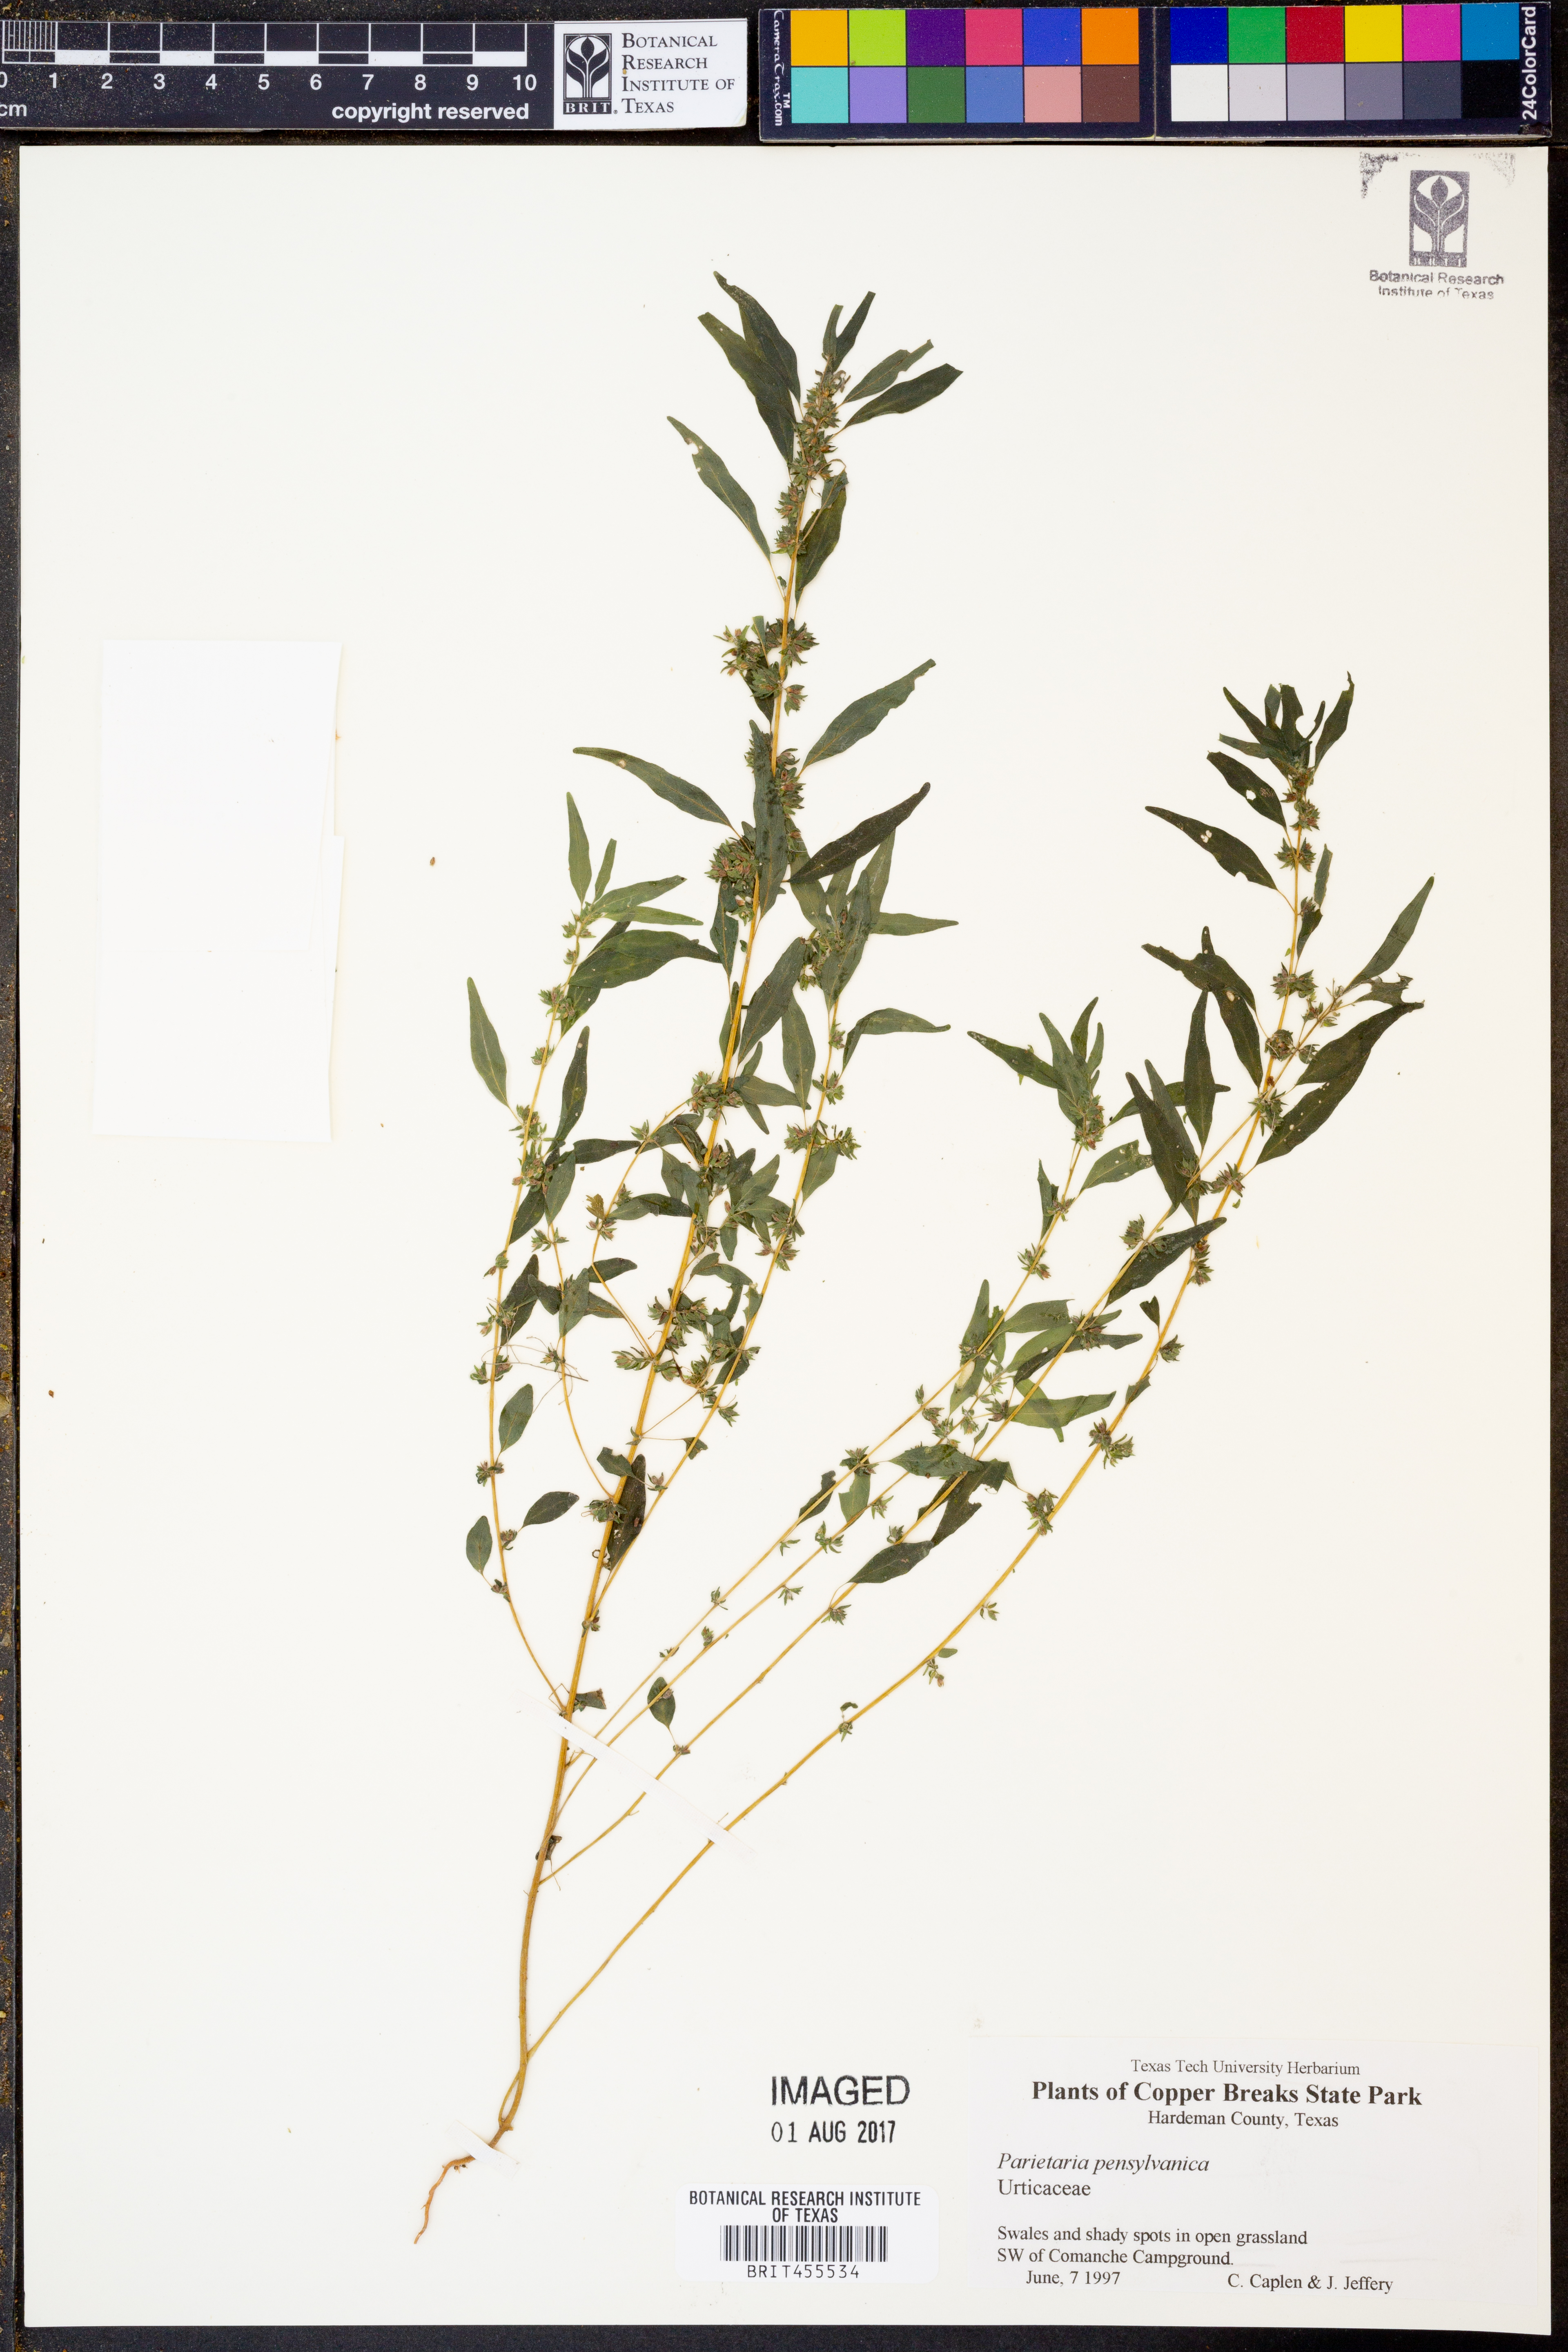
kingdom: Plantae
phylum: Tracheophyta
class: Magnoliopsida
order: Rosales
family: Urticaceae
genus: Parietaria
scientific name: Parietaria pensylvanica
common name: Pennsylvania pellitory
